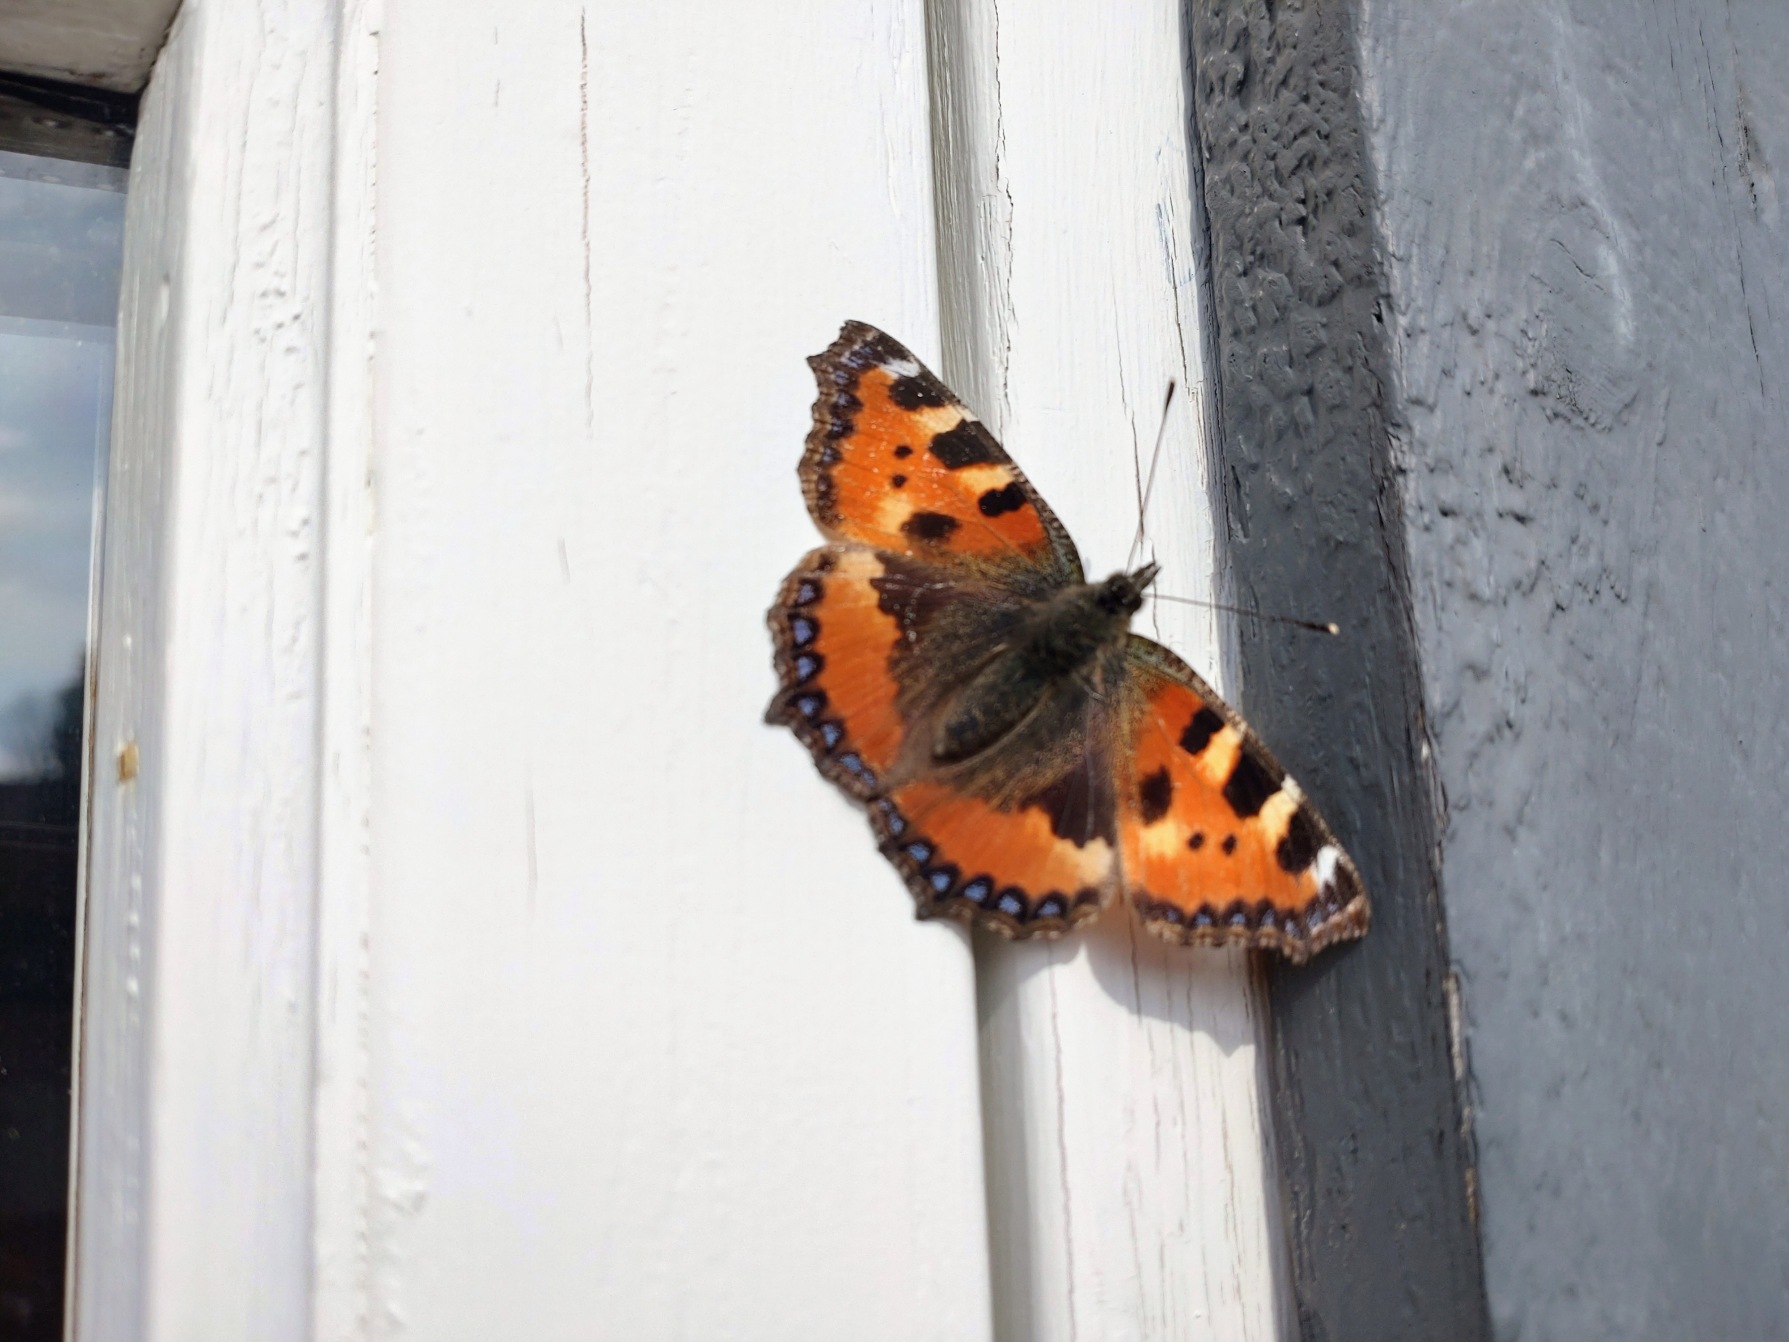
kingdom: Animalia
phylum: Arthropoda
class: Insecta
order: Lepidoptera
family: Nymphalidae
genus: Aglais
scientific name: Aglais urticae
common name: Nældens takvinge
